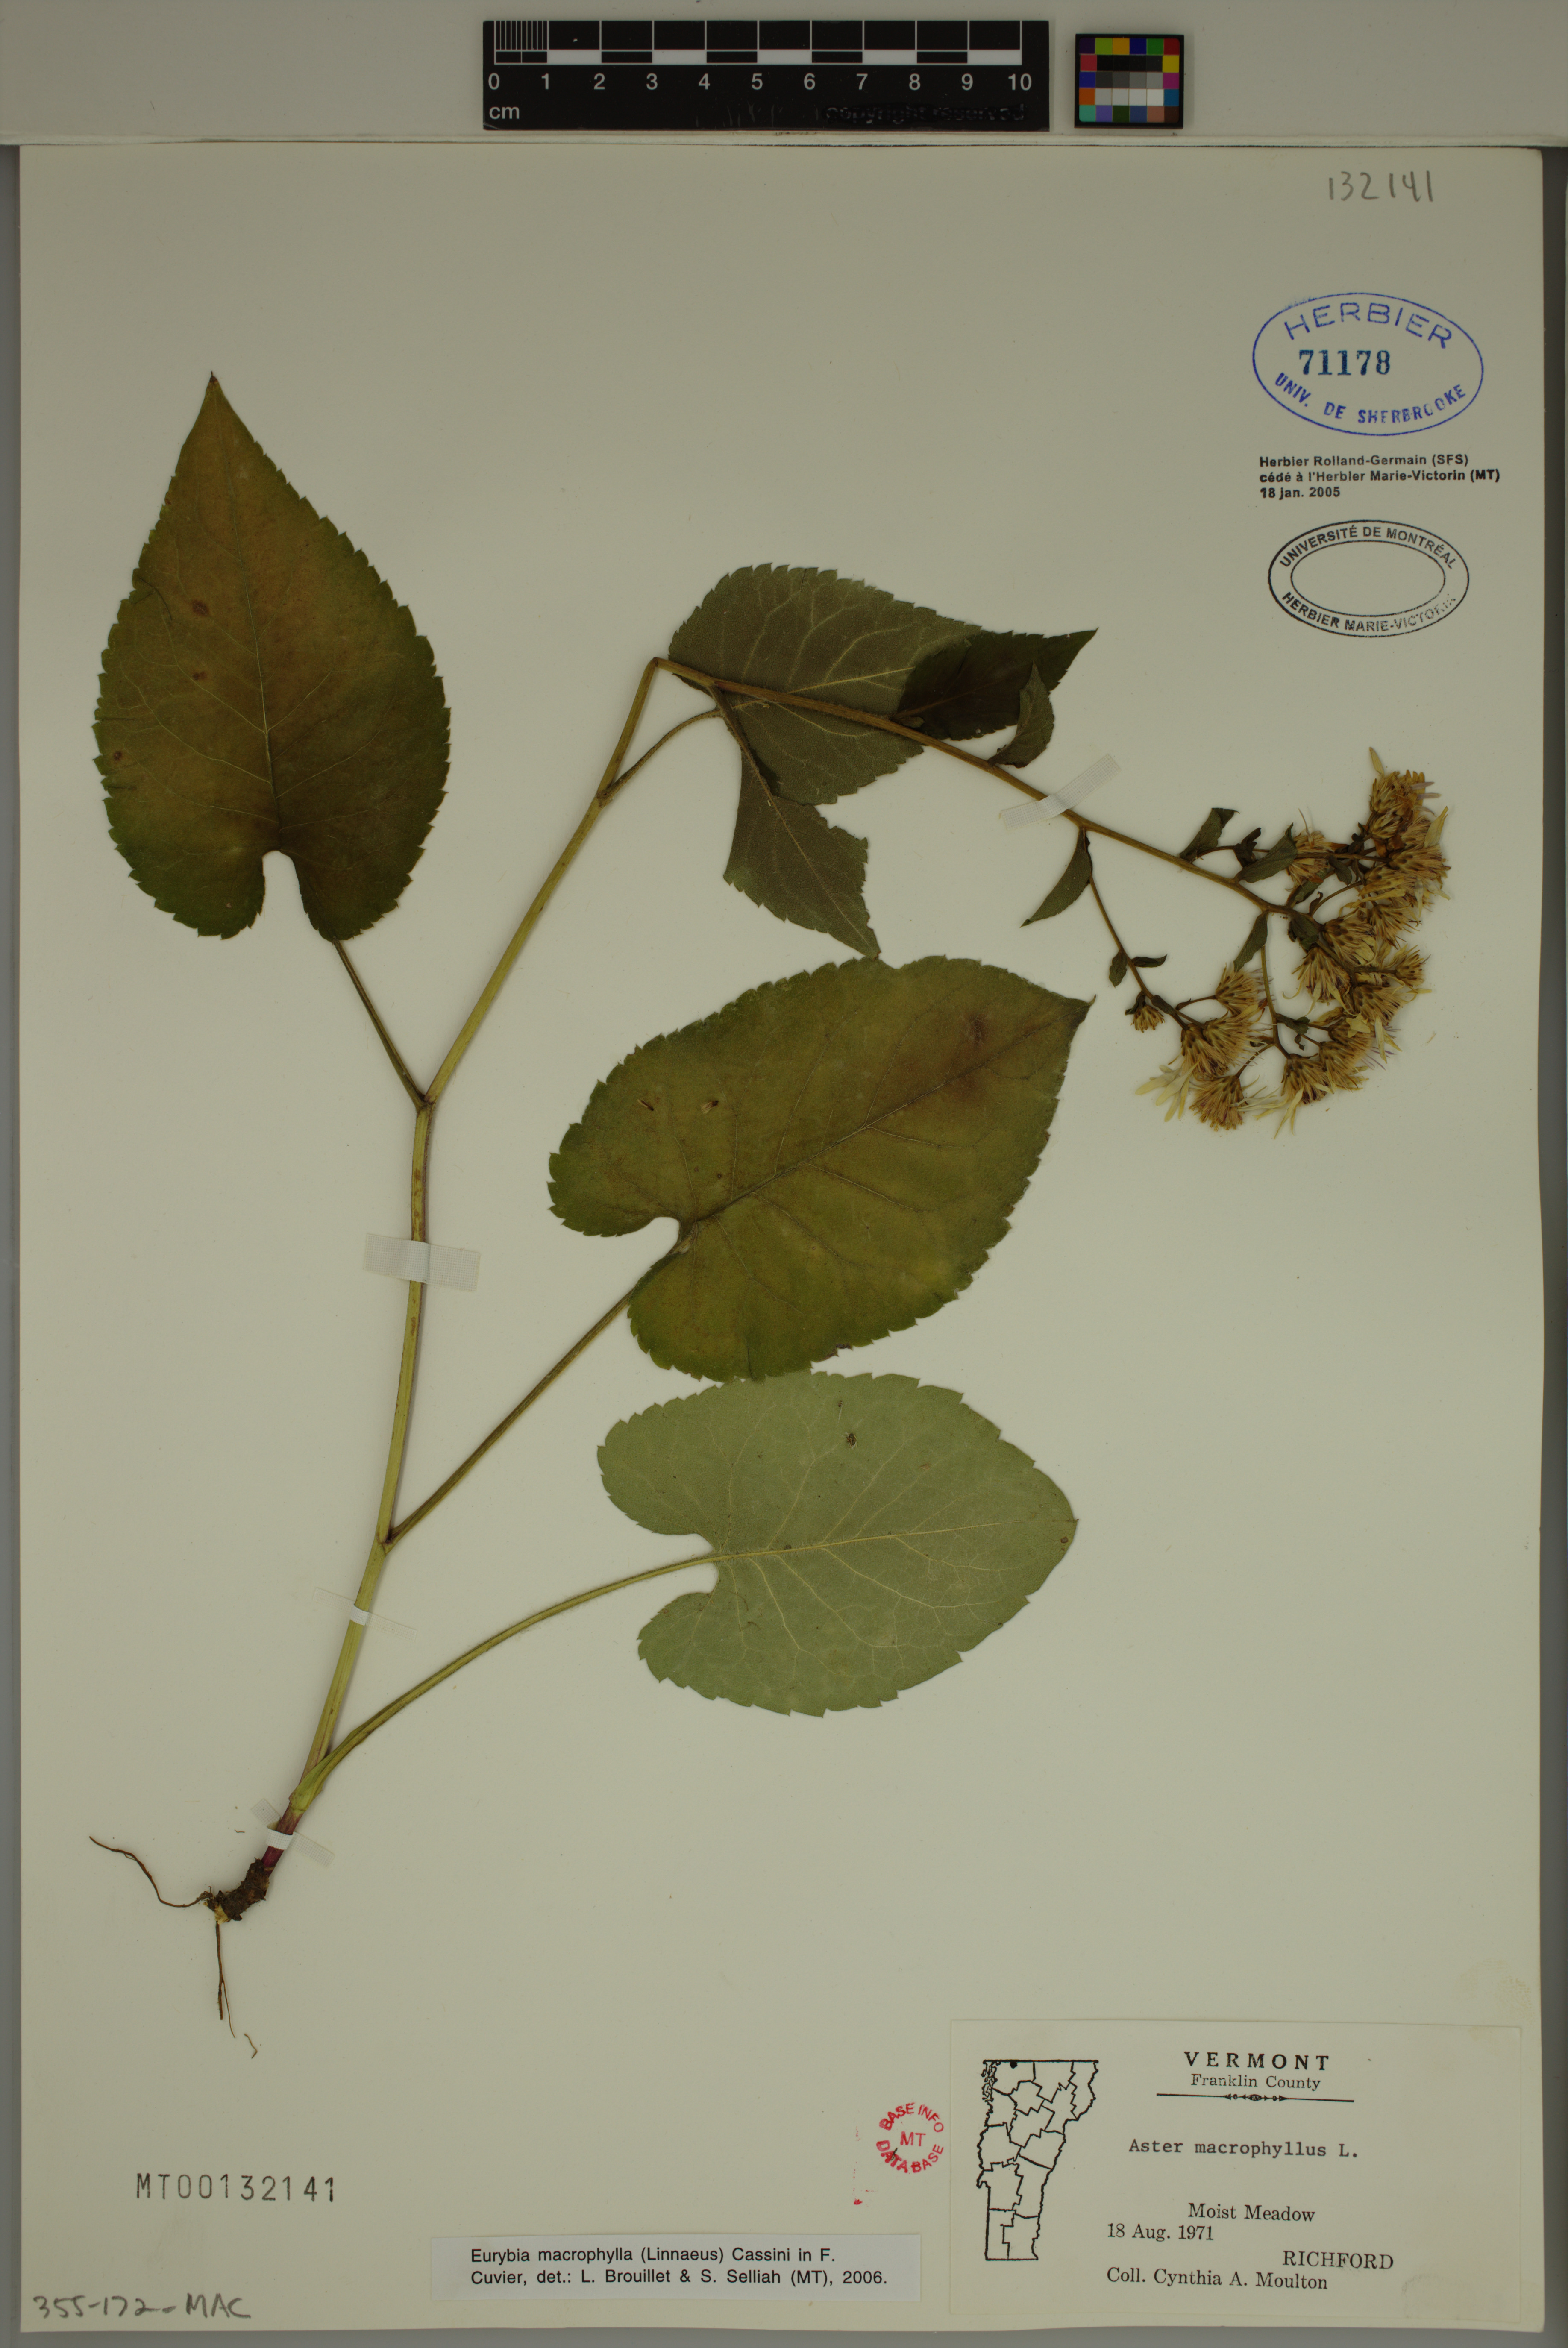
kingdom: Plantae
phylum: Tracheophyta
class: Magnoliopsida
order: Asterales
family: Asteraceae
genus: Eurybia
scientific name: Eurybia macrophylla
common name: Big-leaved aster
